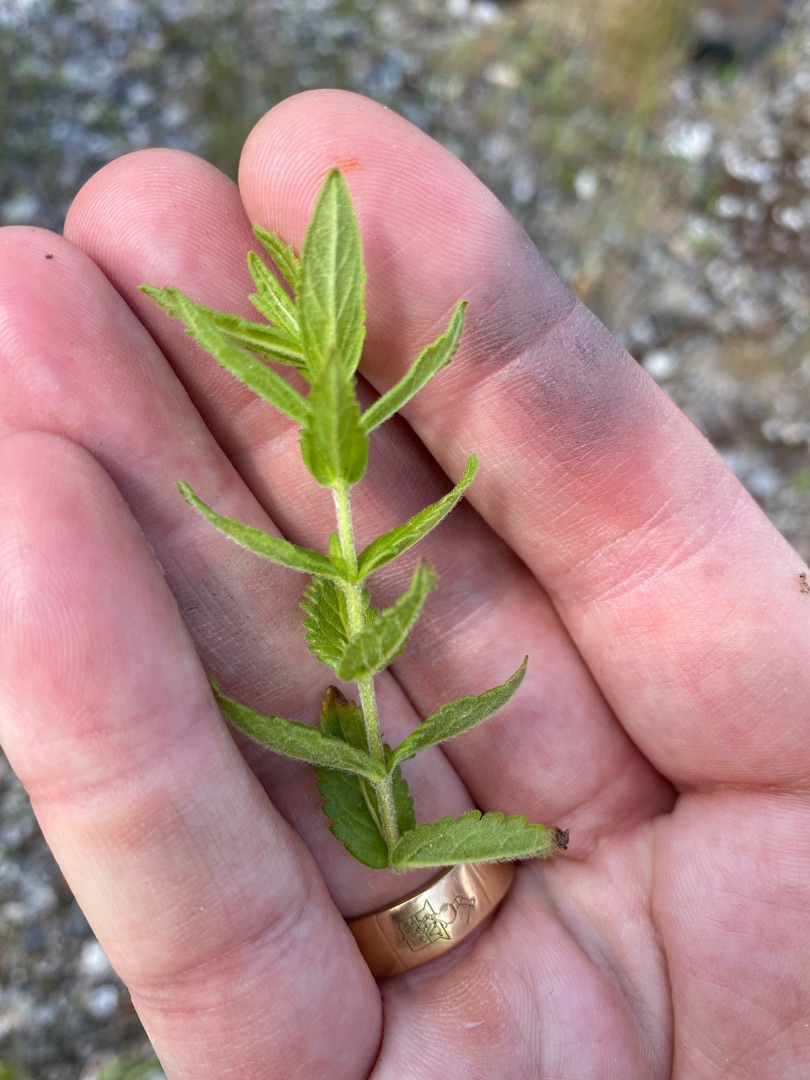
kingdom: Plantae
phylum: Tracheophyta
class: Magnoliopsida
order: Lamiales
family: Plantaginaceae
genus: Veronica
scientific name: Veronica teucrium
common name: Bredbladet ærenpris
